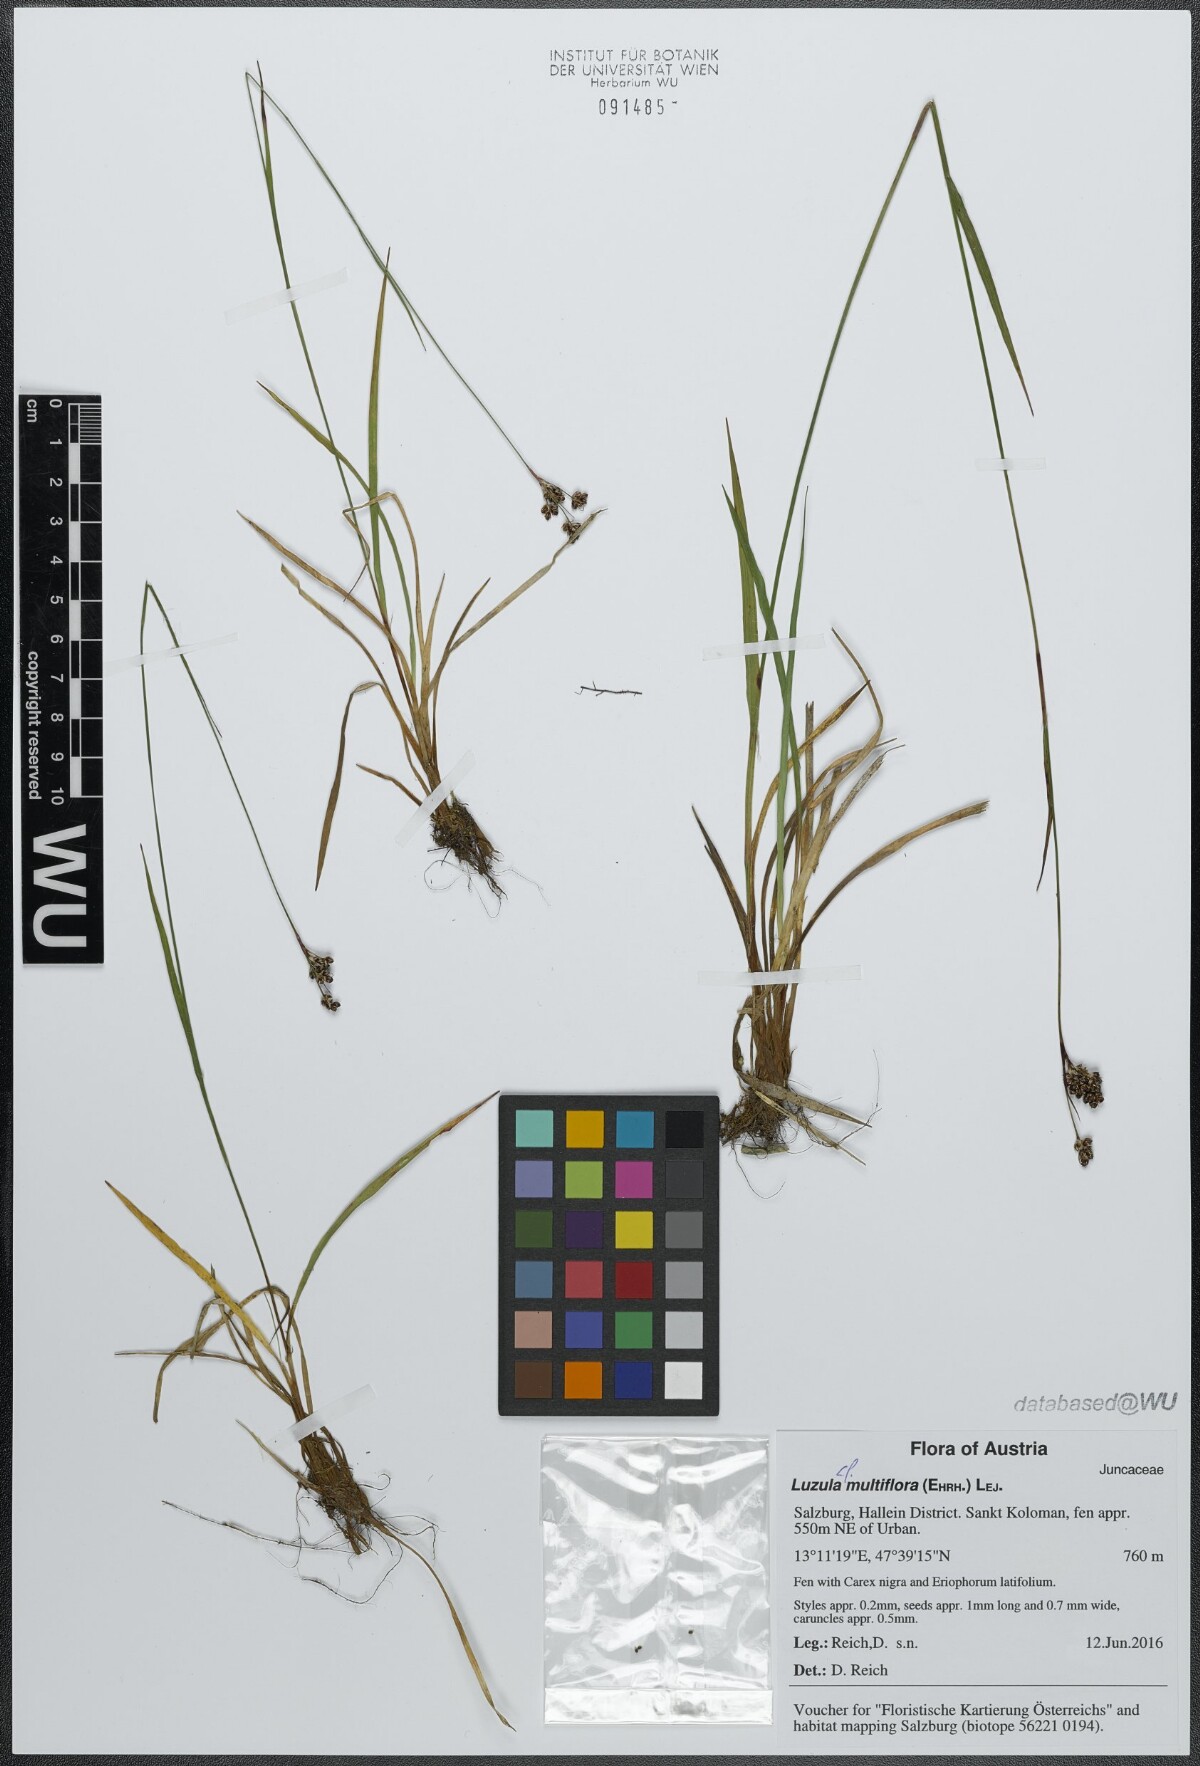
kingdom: Plantae
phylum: Tracheophyta
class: Liliopsida
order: Poales
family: Juncaceae
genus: Luzula
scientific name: Luzula multiflora
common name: Heath wood-rush
